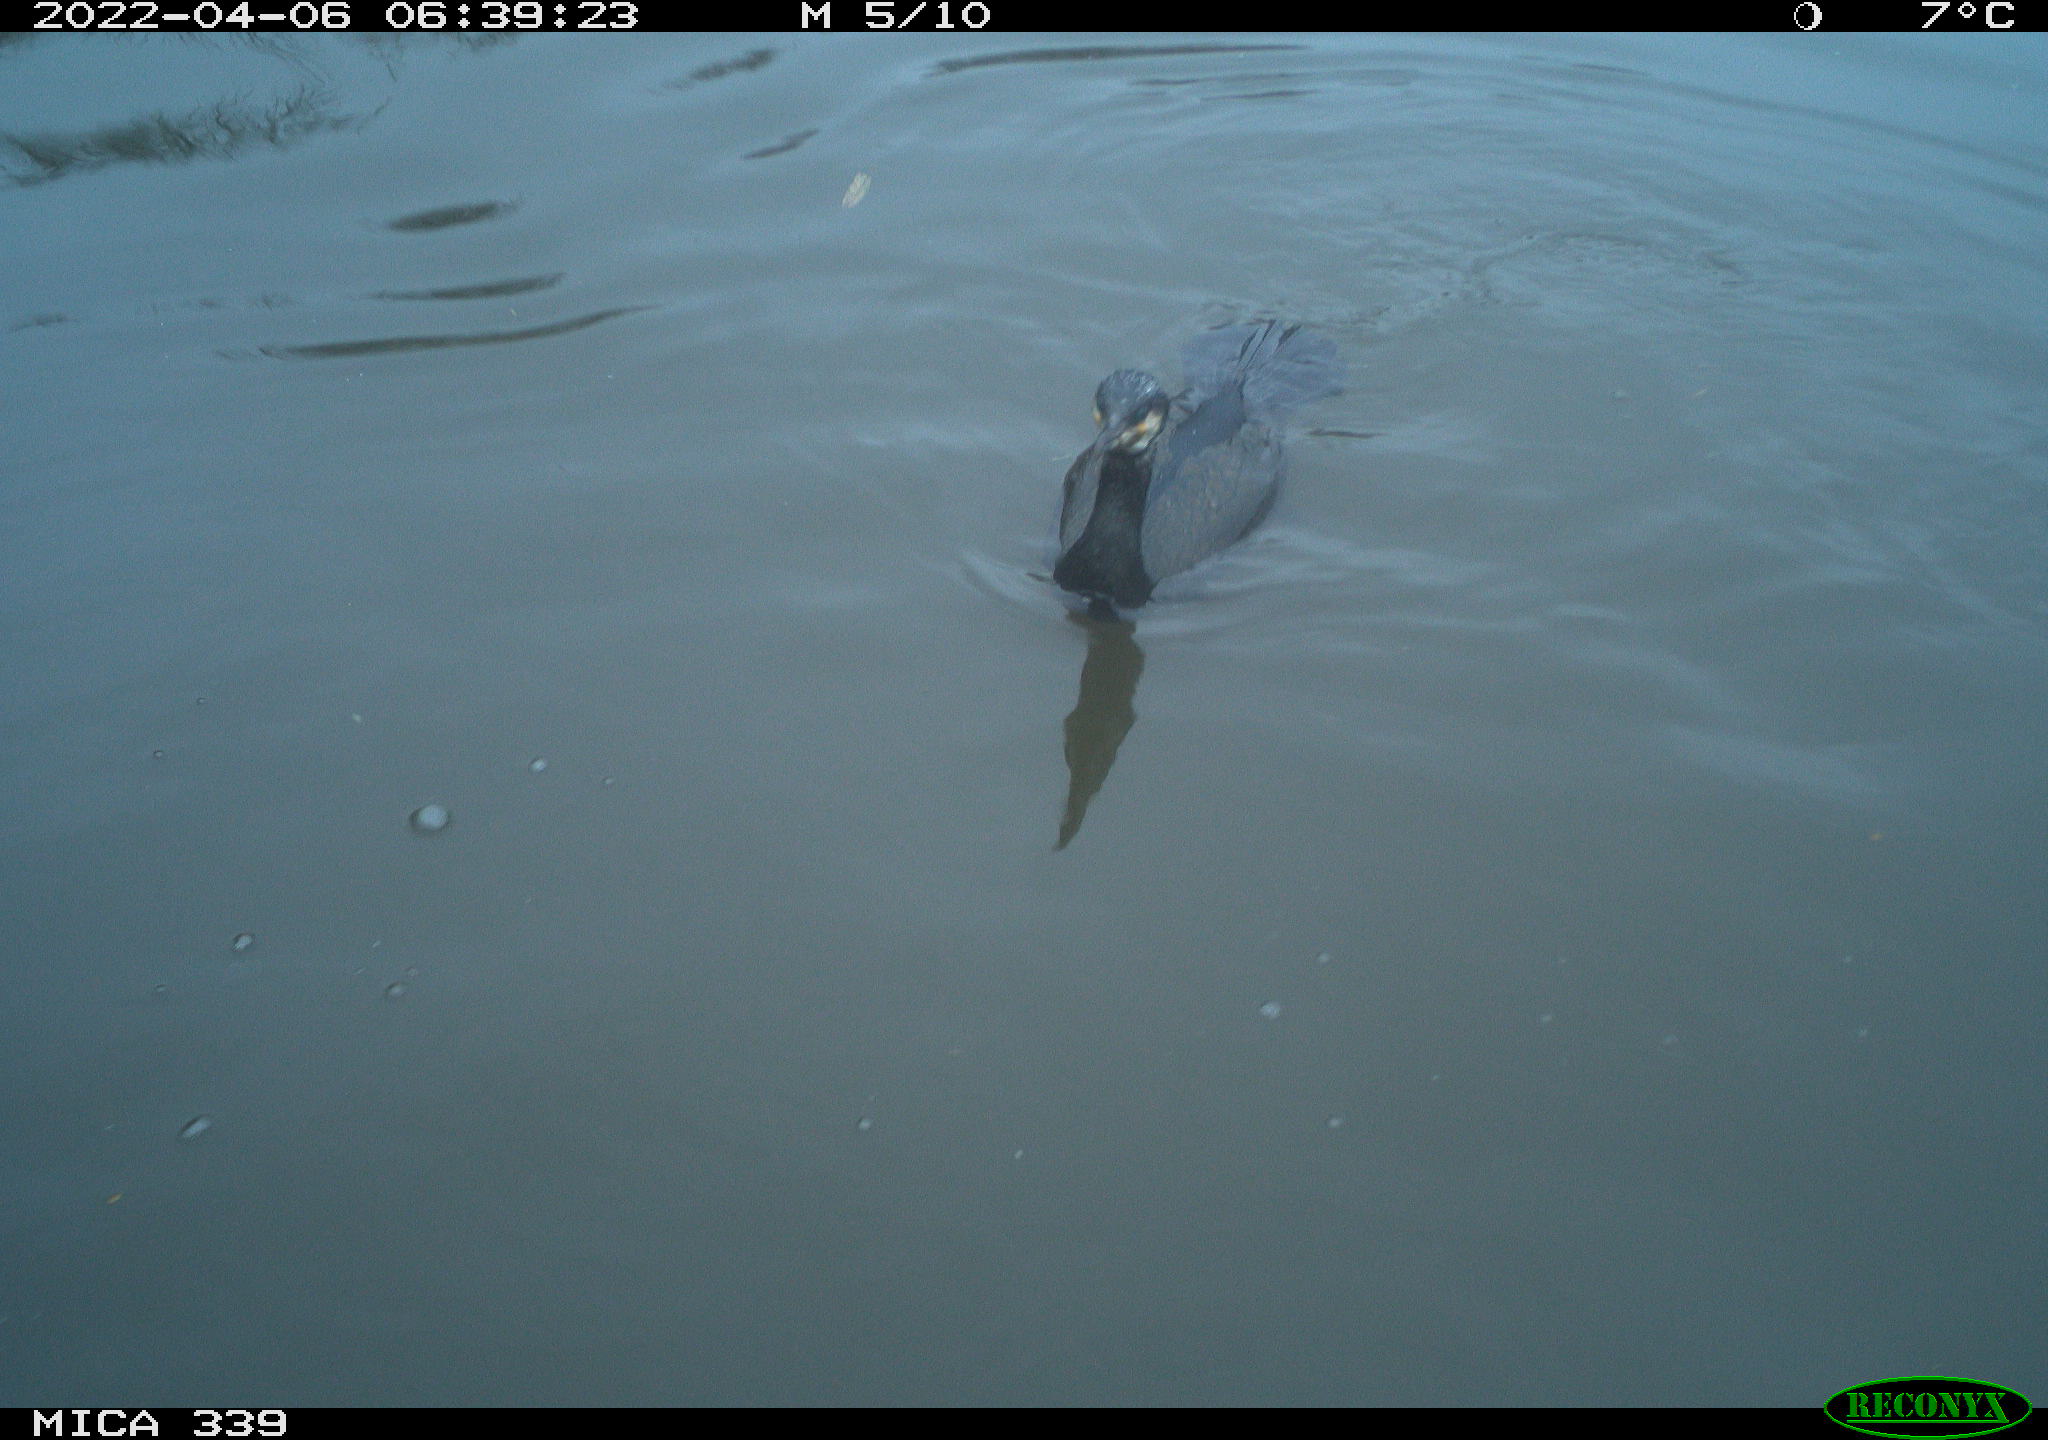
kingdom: Animalia
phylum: Chordata
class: Aves
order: Suliformes
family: Phalacrocoracidae
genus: Phalacrocorax
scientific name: Phalacrocorax carbo
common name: Great cormorant
